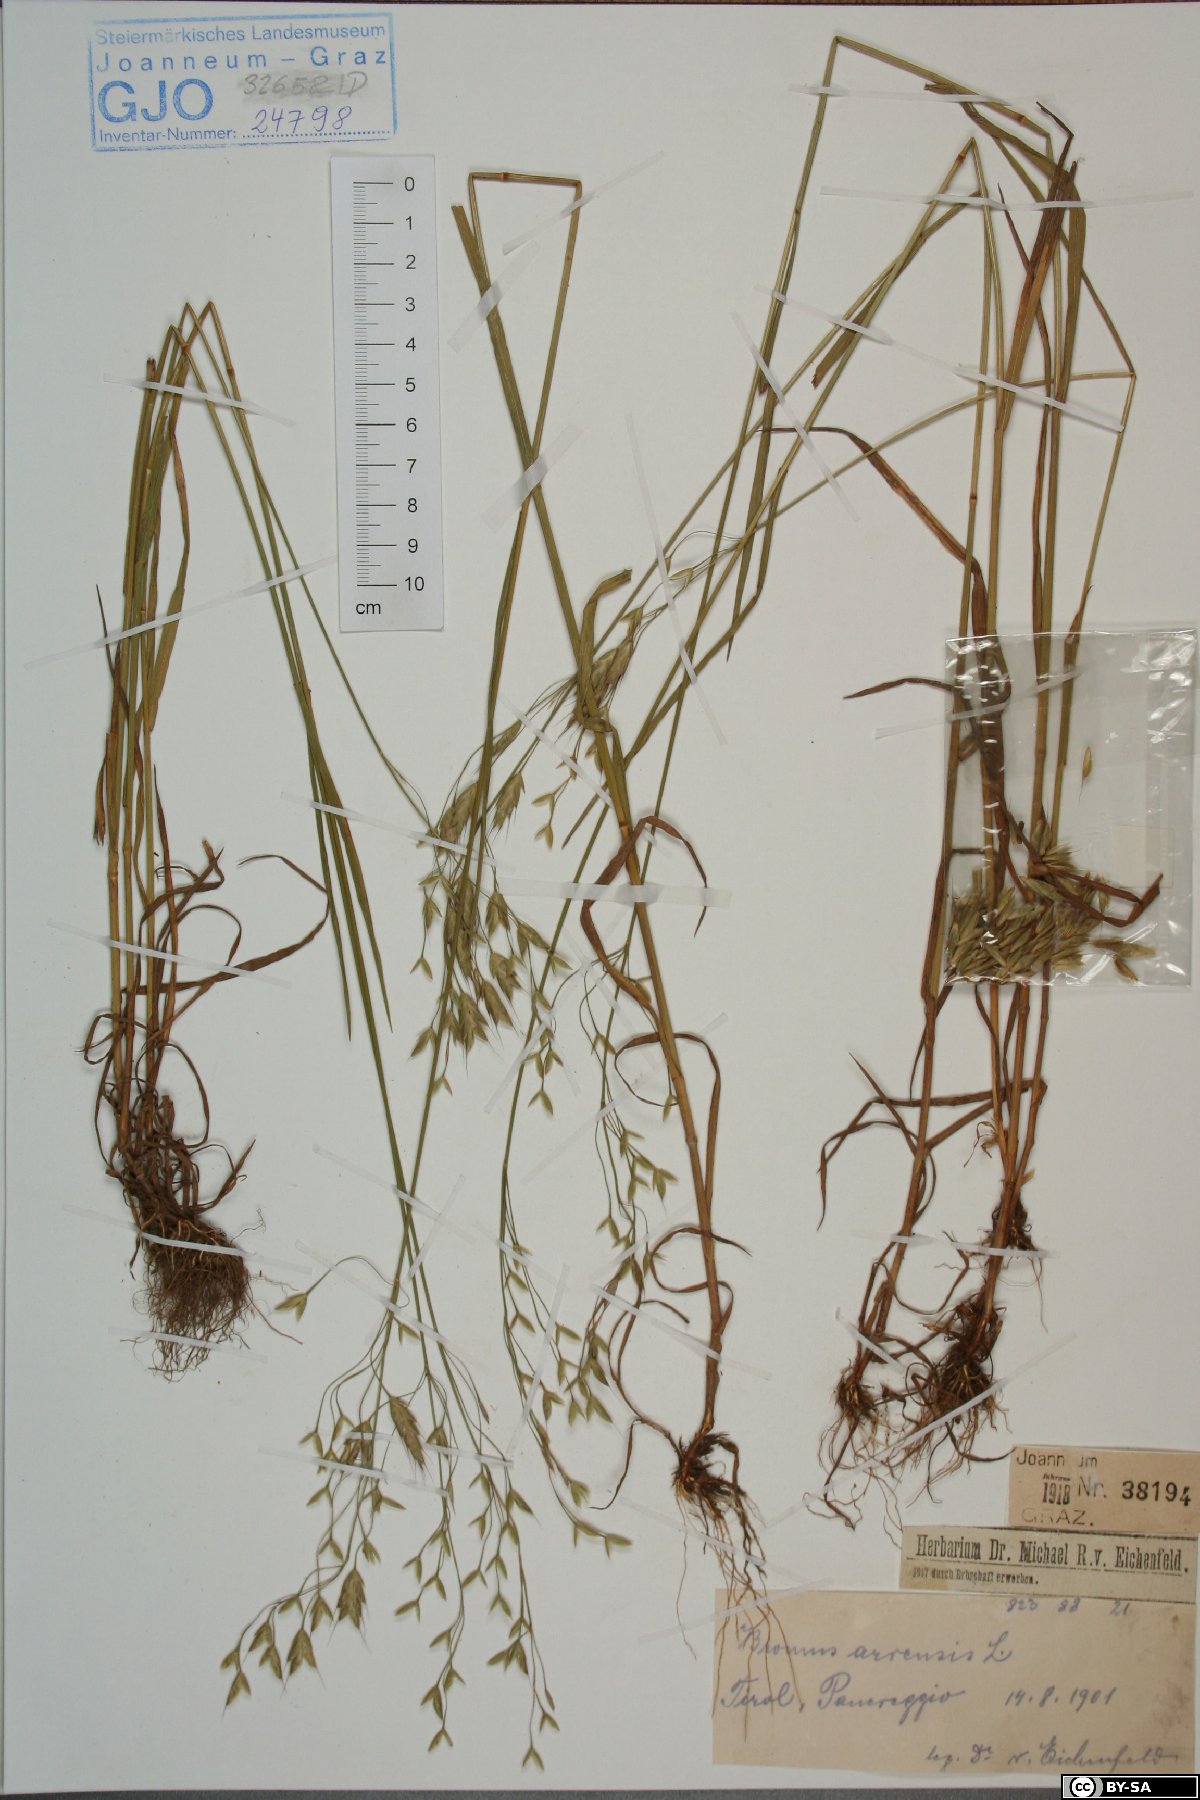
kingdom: Plantae
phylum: Tracheophyta
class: Liliopsida
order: Poales
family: Poaceae
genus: Bromus
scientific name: Bromus arvensis
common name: Field brome
